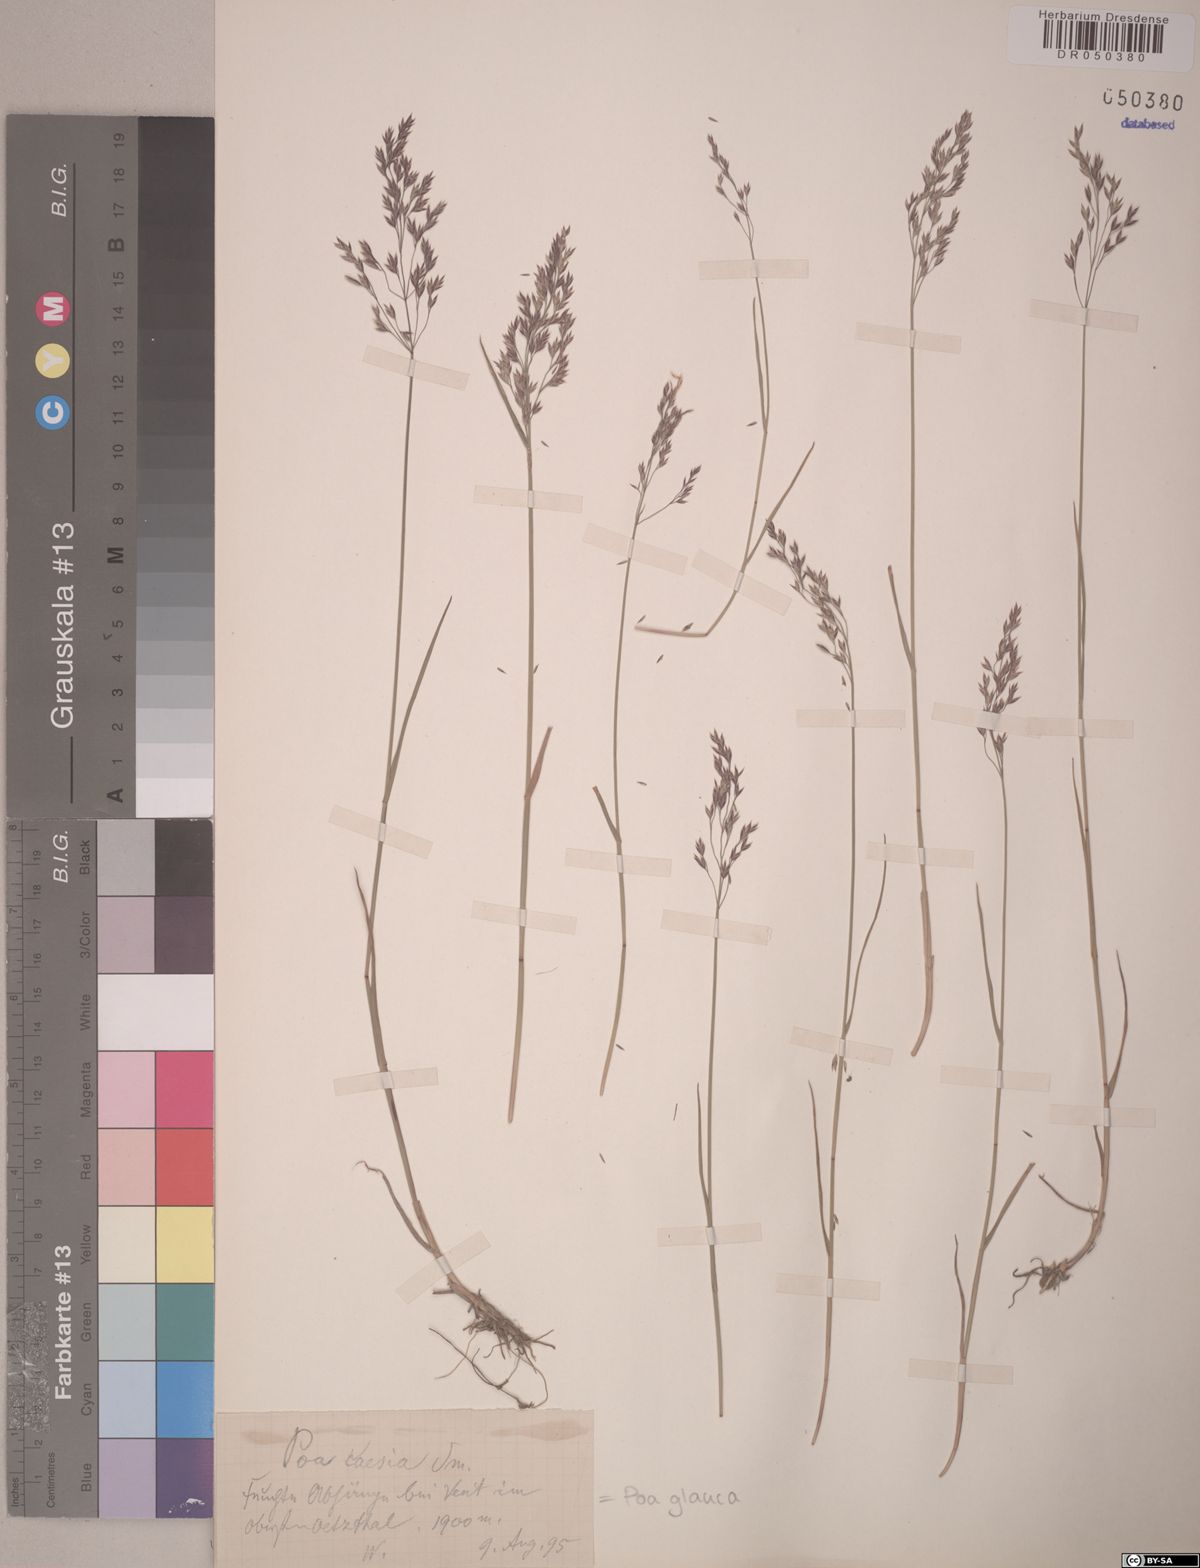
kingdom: Plantae
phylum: Tracheophyta
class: Liliopsida
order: Poales
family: Poaceae
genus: Poa
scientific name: Poa glauca
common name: Glaucous bluegrass
